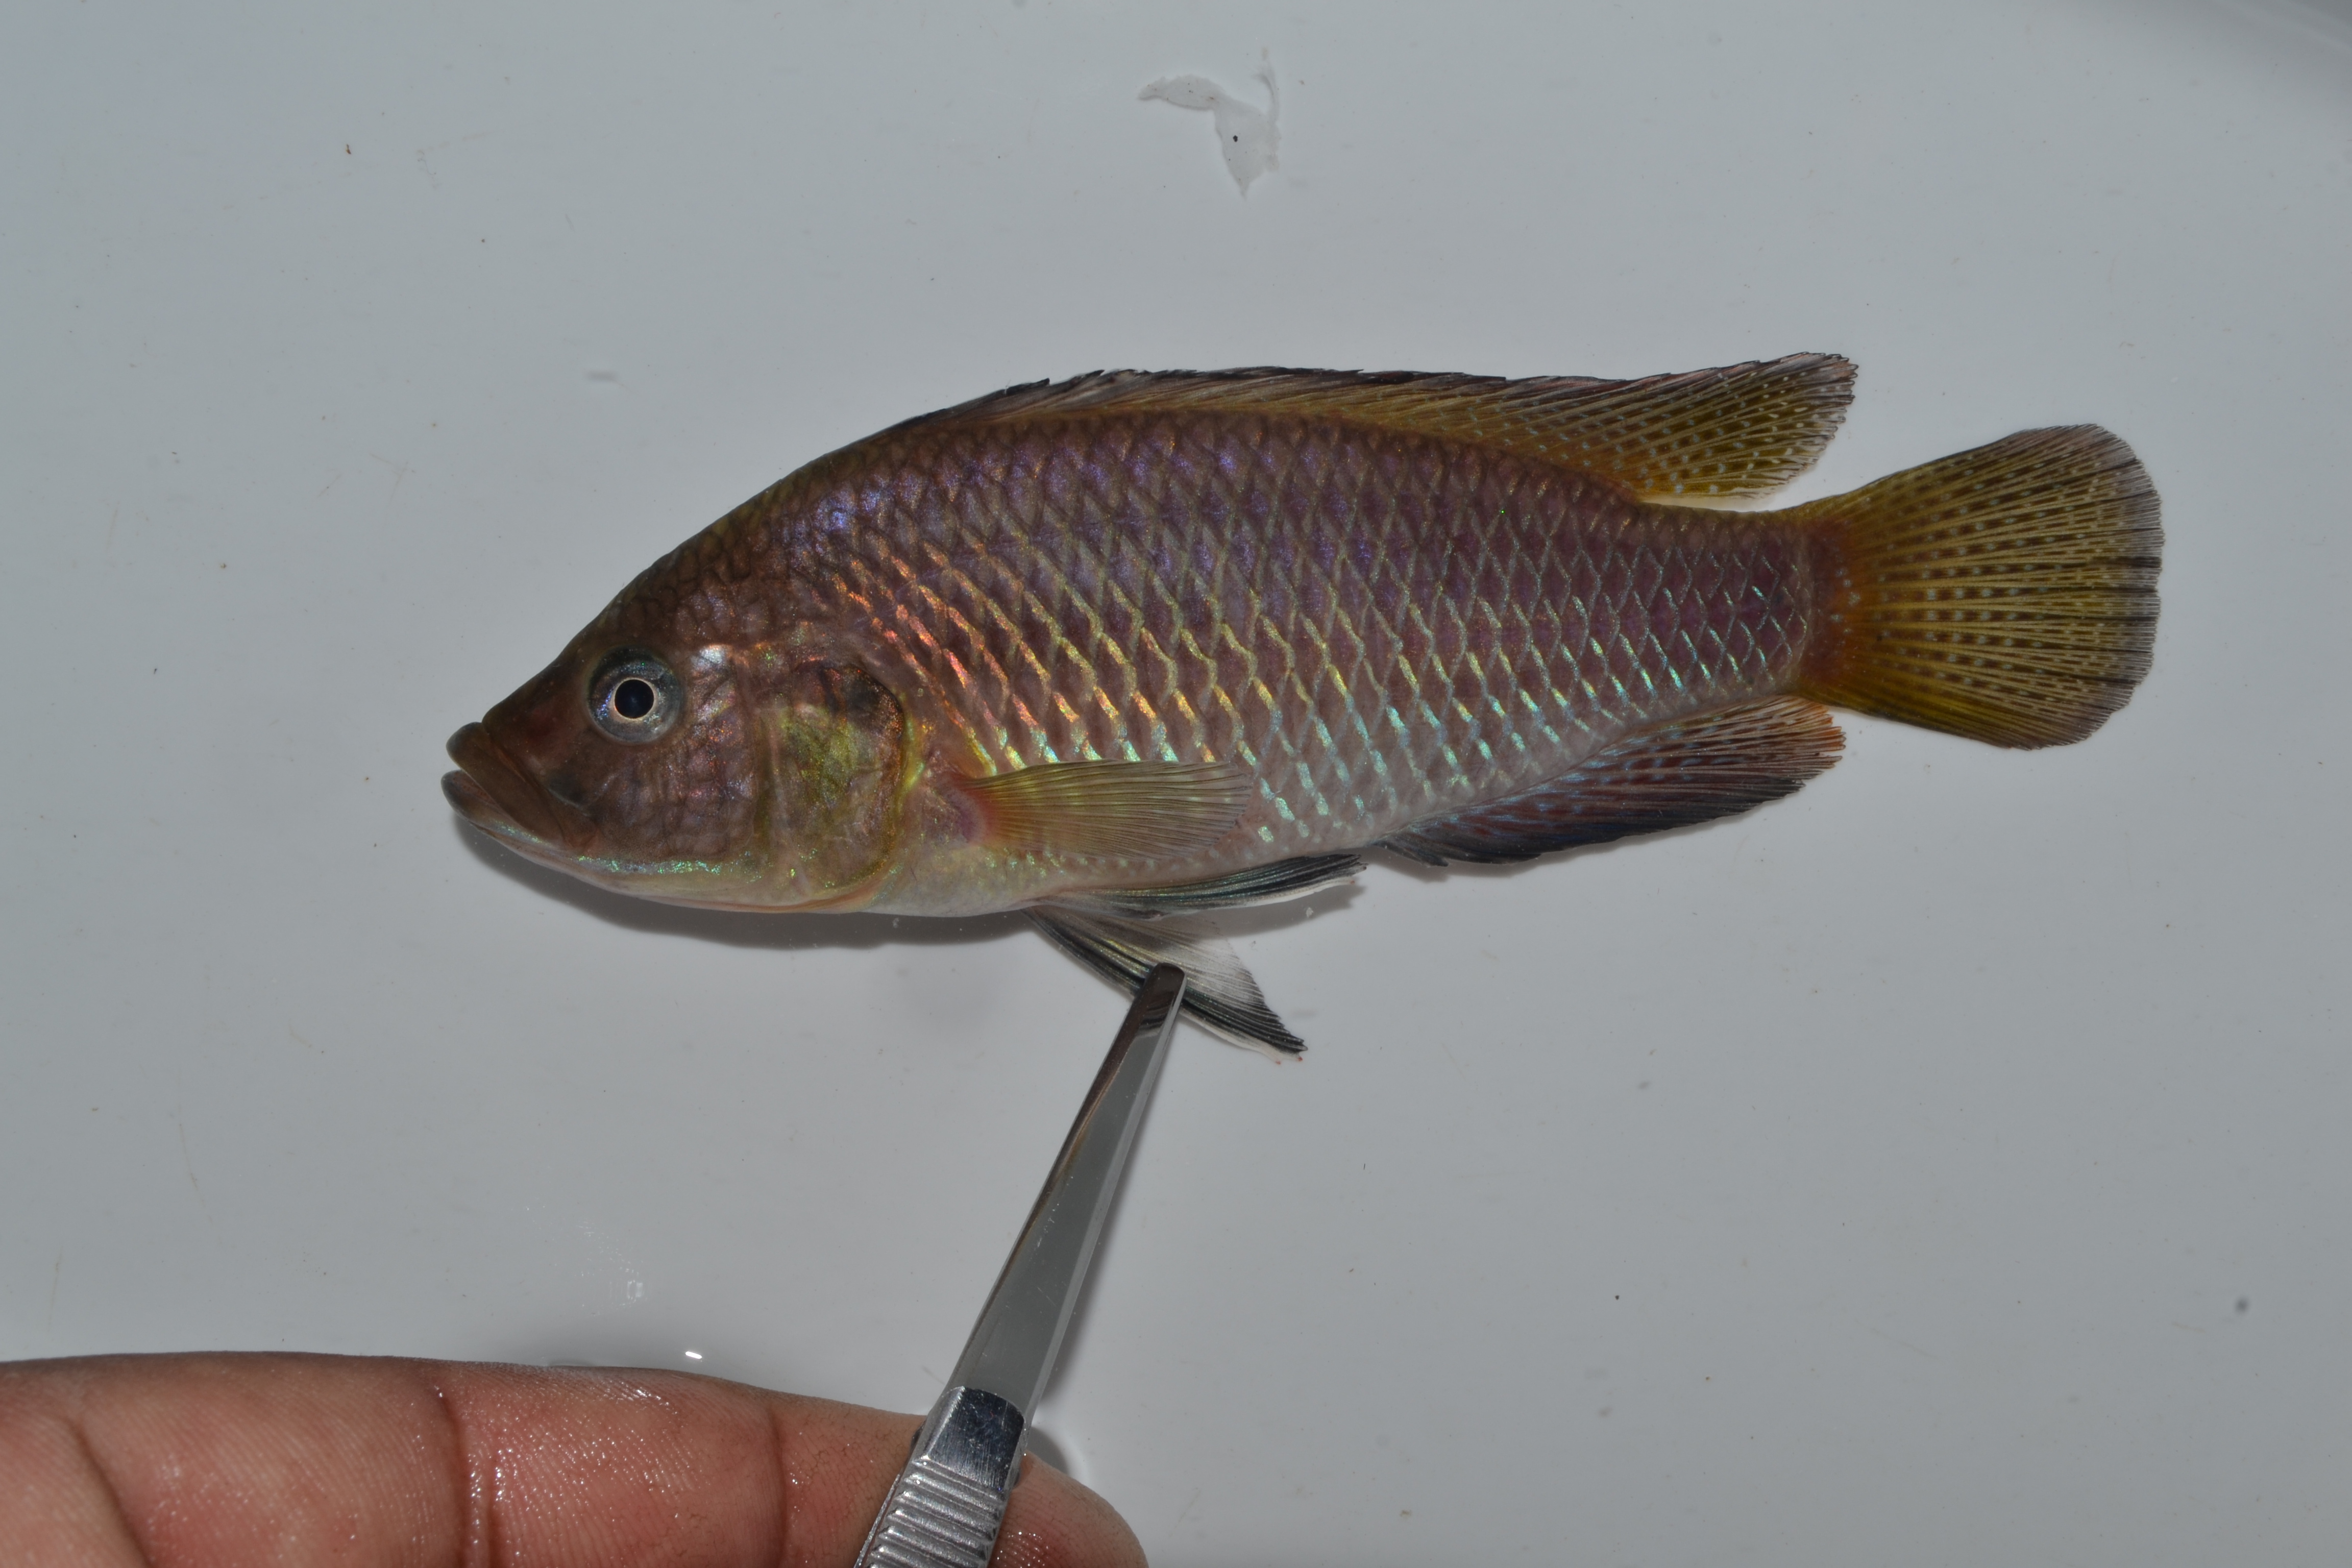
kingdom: Animalia
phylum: Chordata
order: Perciformes
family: Cichlidae
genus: Pseudocrenilabrus
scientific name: Pseudocrenilabrus philander
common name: Southern mouthbrooder
